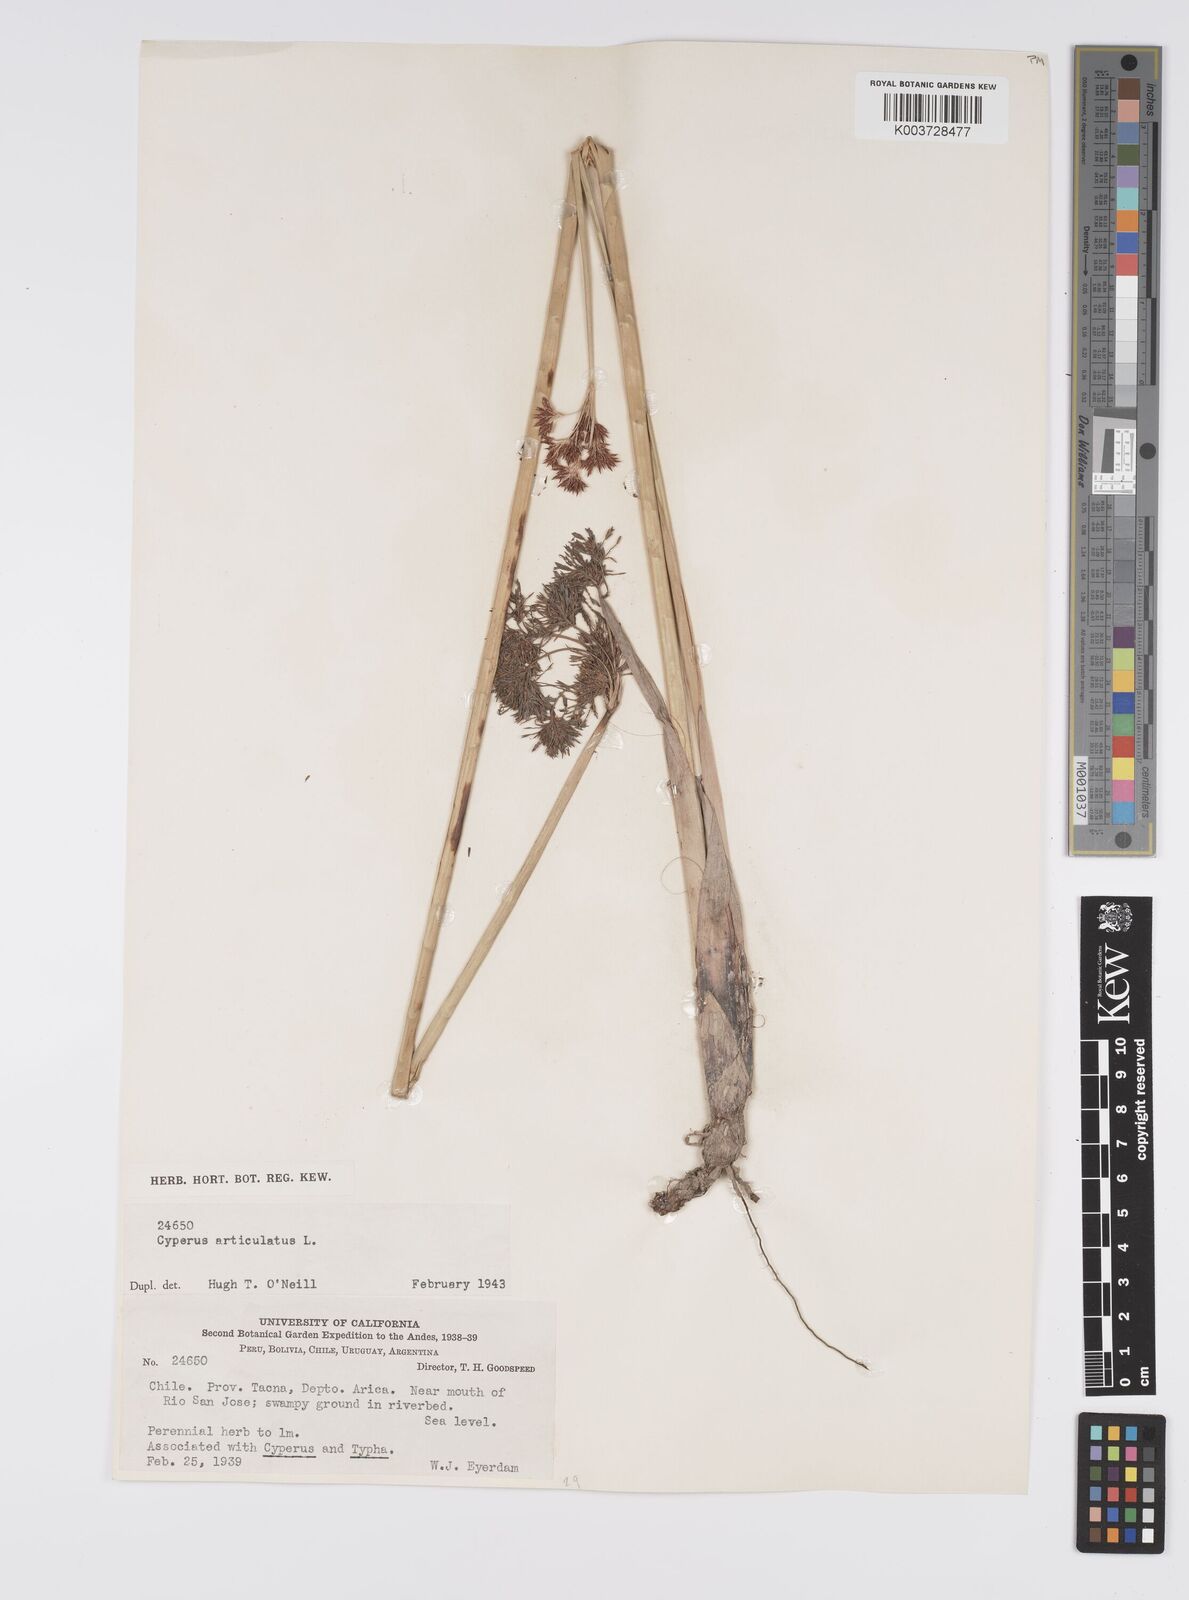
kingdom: Plantae
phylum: Tracheophyta
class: Liliopsida
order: Poales
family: Cyperaceae
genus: Cyperus
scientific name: Cyperus articulatus
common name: Jointed flatsedge
